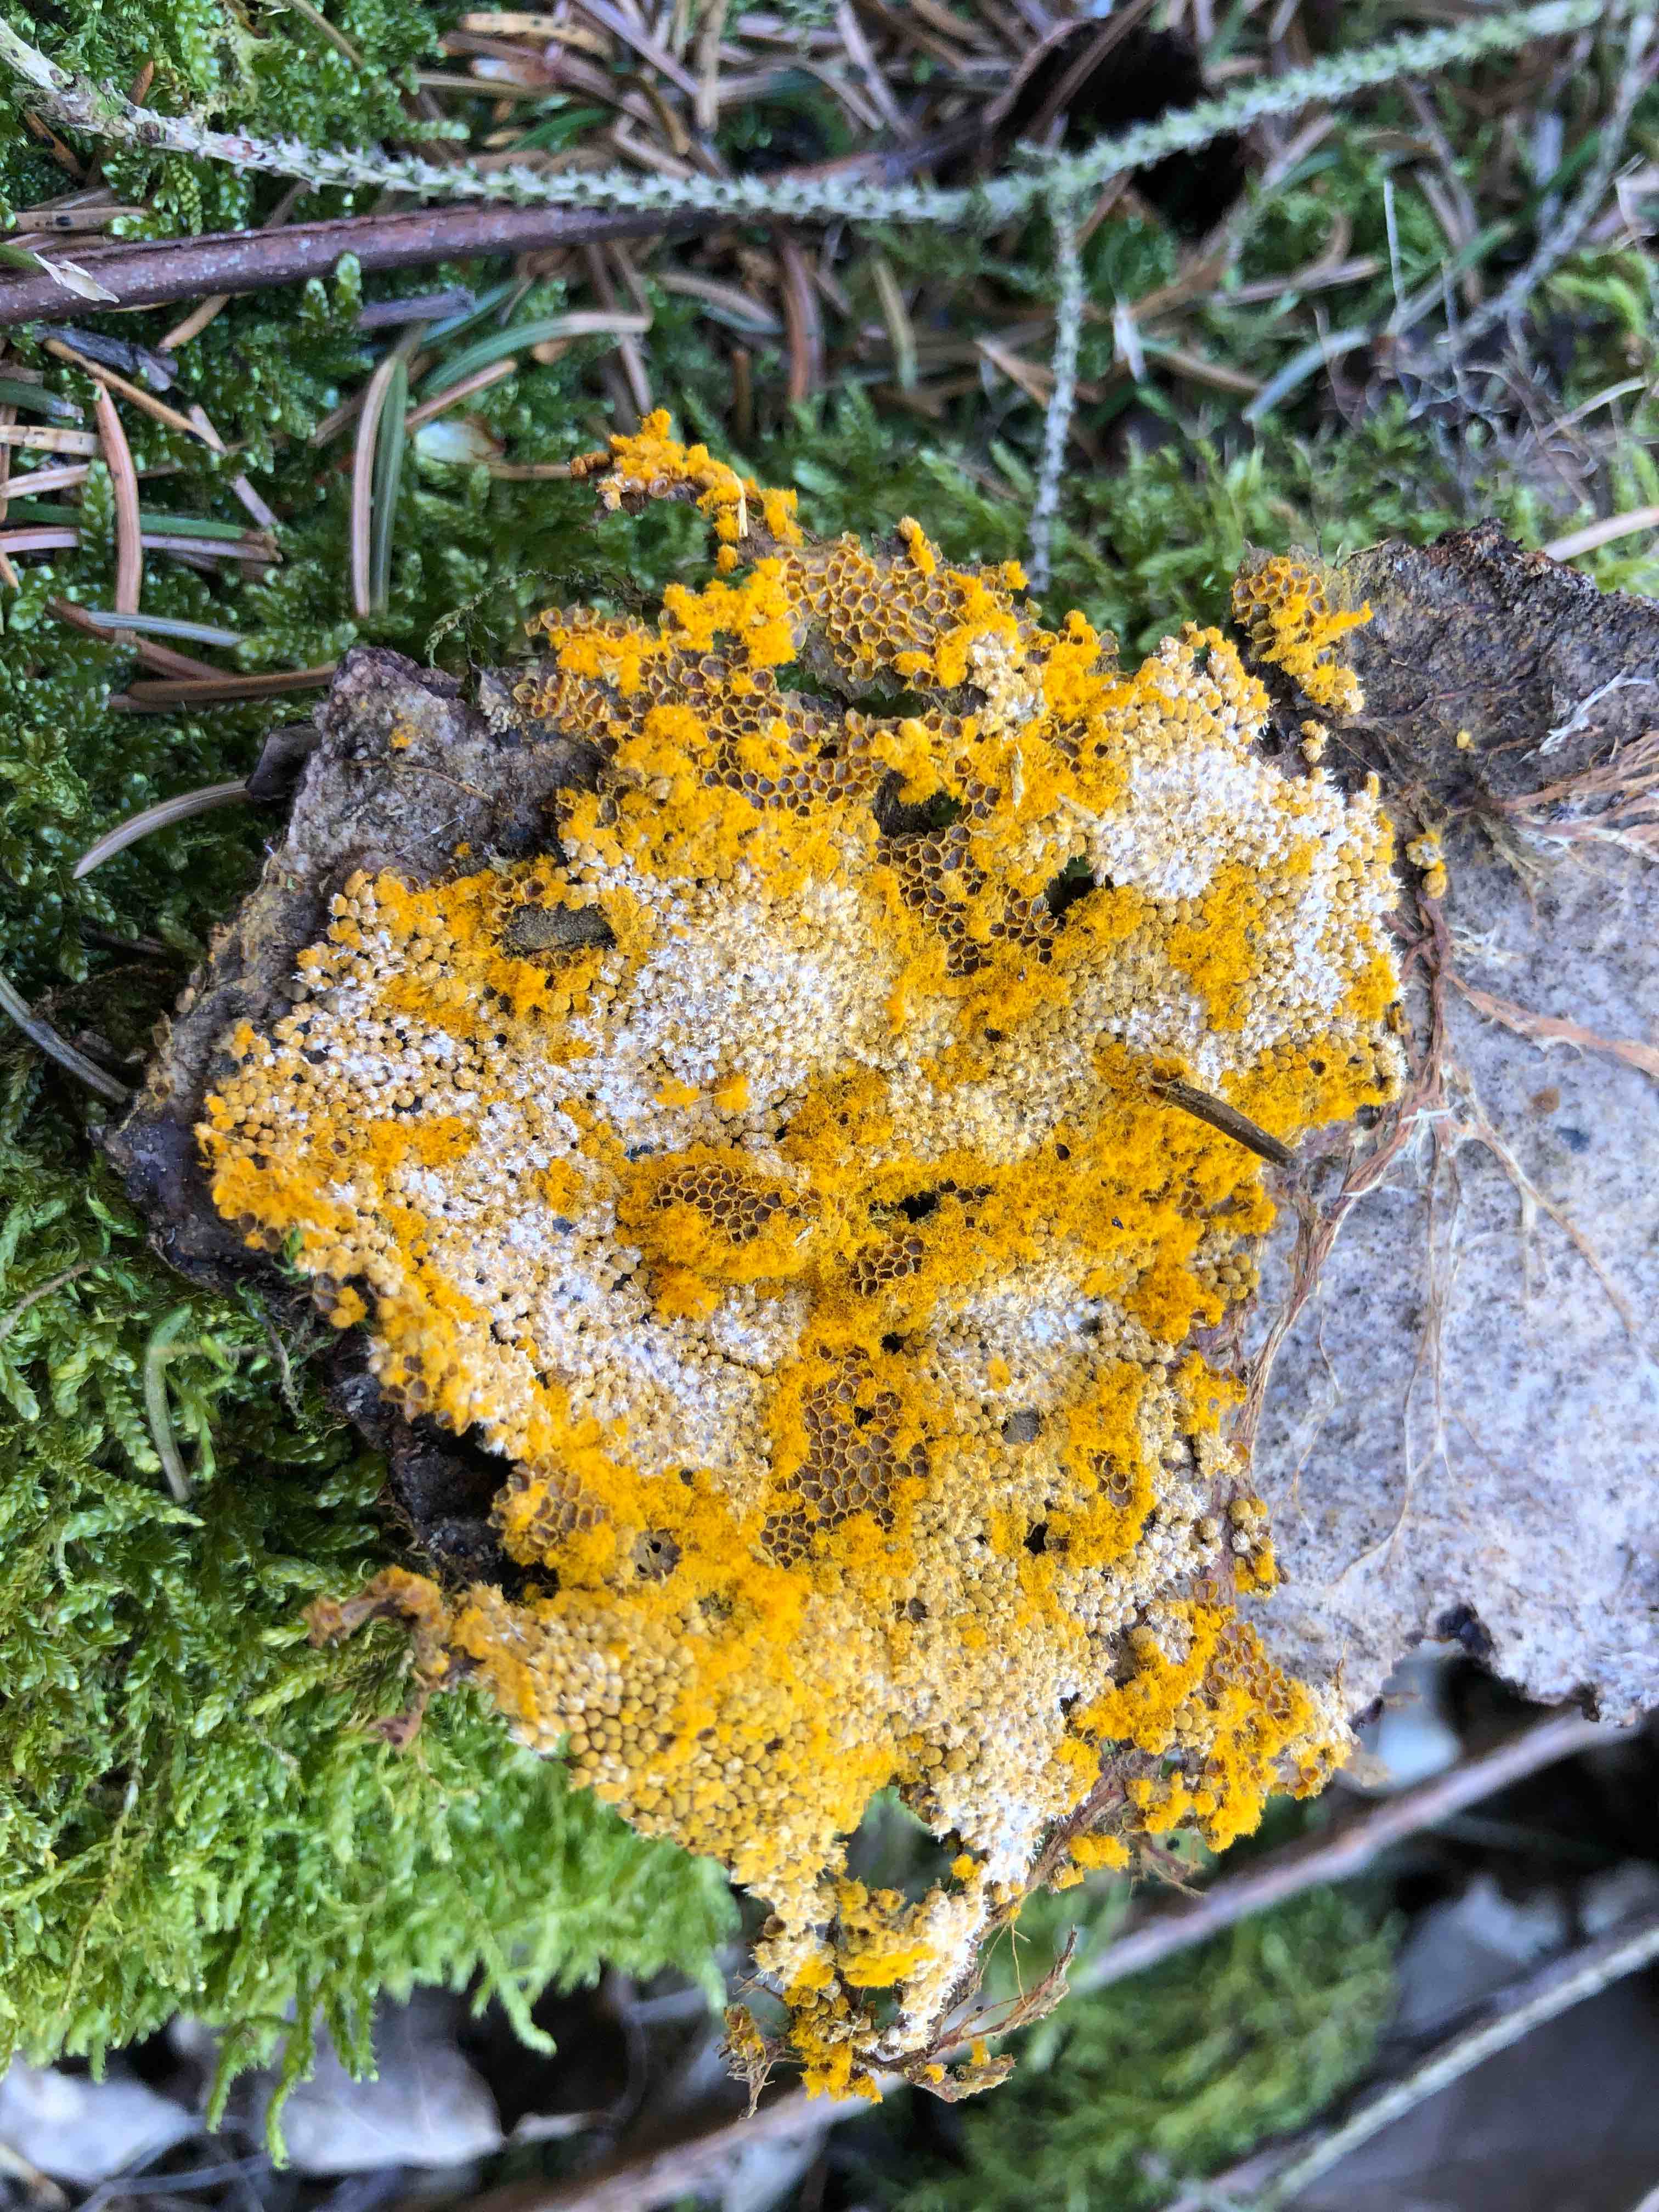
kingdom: Protozoa
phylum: Mycetozoa
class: Myxomycetes
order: Trichiales
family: Trichiaceae
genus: Trichia
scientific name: Trichia scabra
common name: tæppe-hårbold
